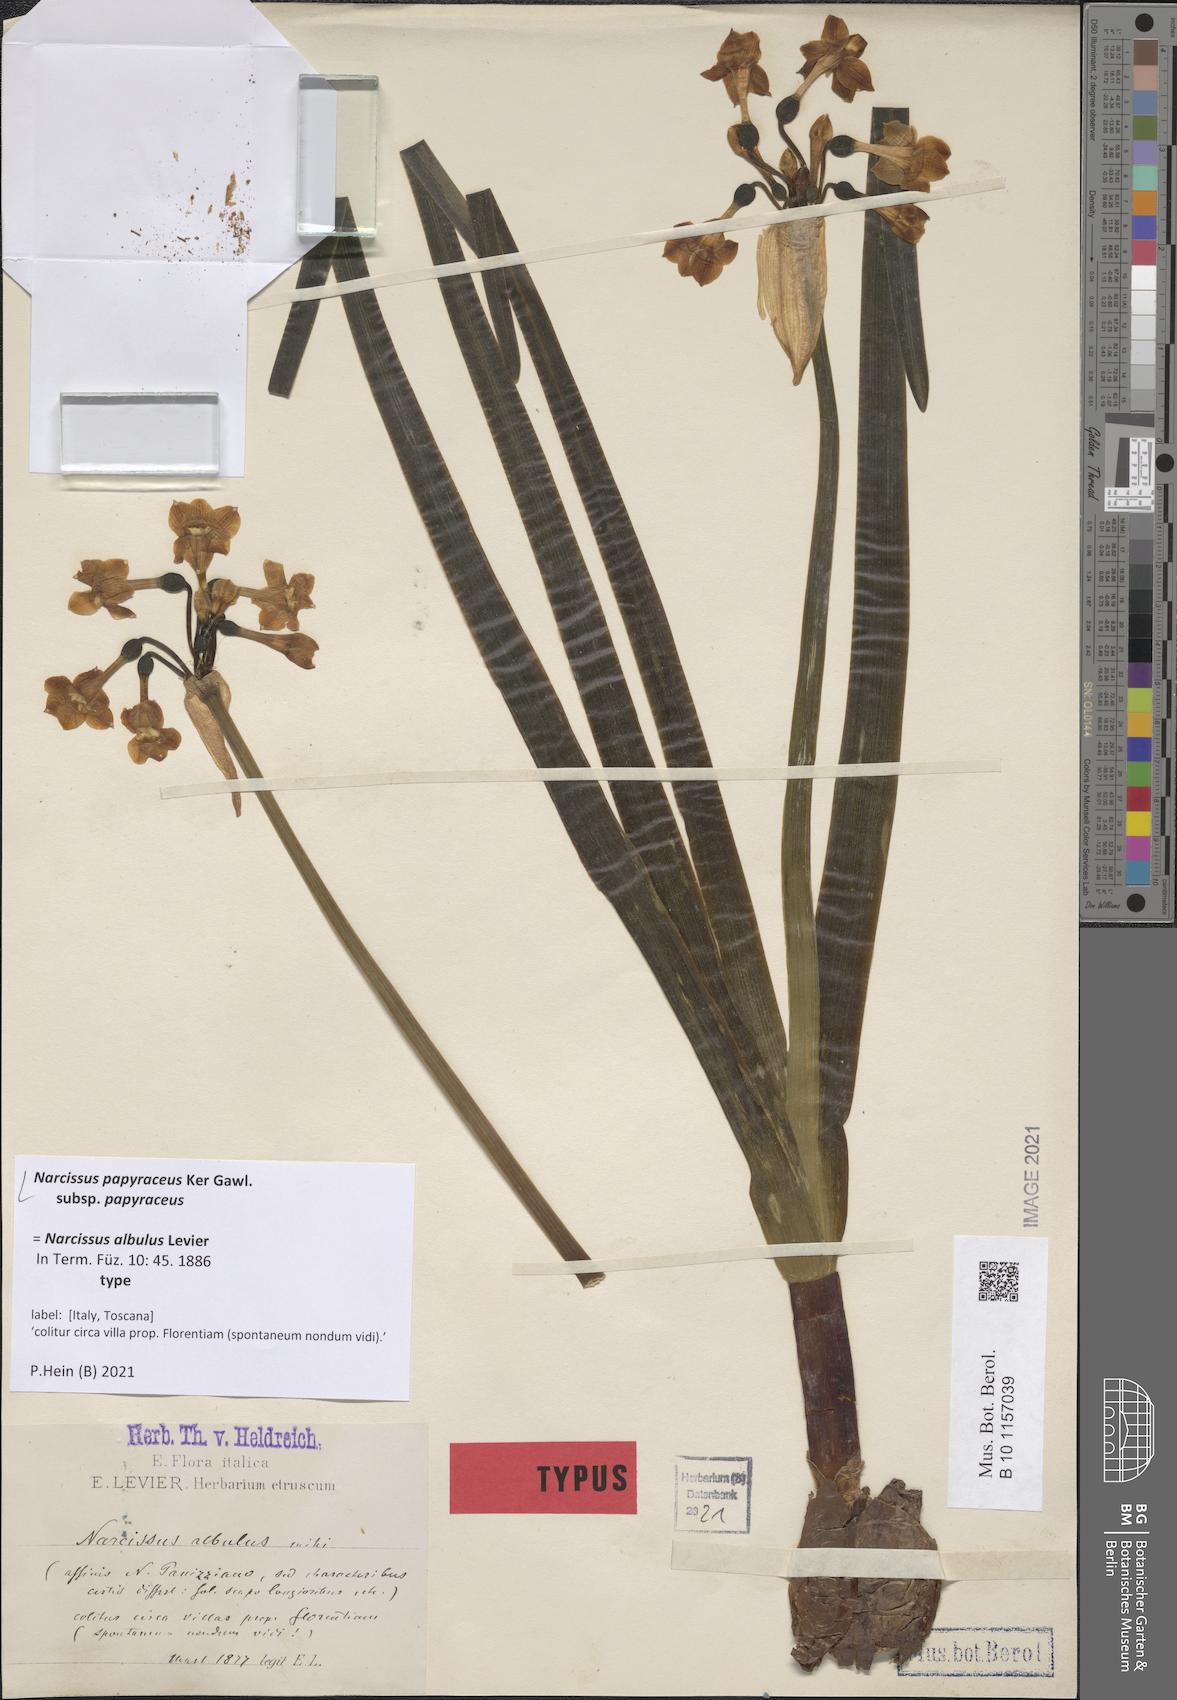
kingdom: Plantae
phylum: Tracheophyta
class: Liliopsida
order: Asparagales
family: Amaryllidaceae
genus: Narcissus
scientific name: Narcissus papyraceus
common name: Paper-white daffodil
